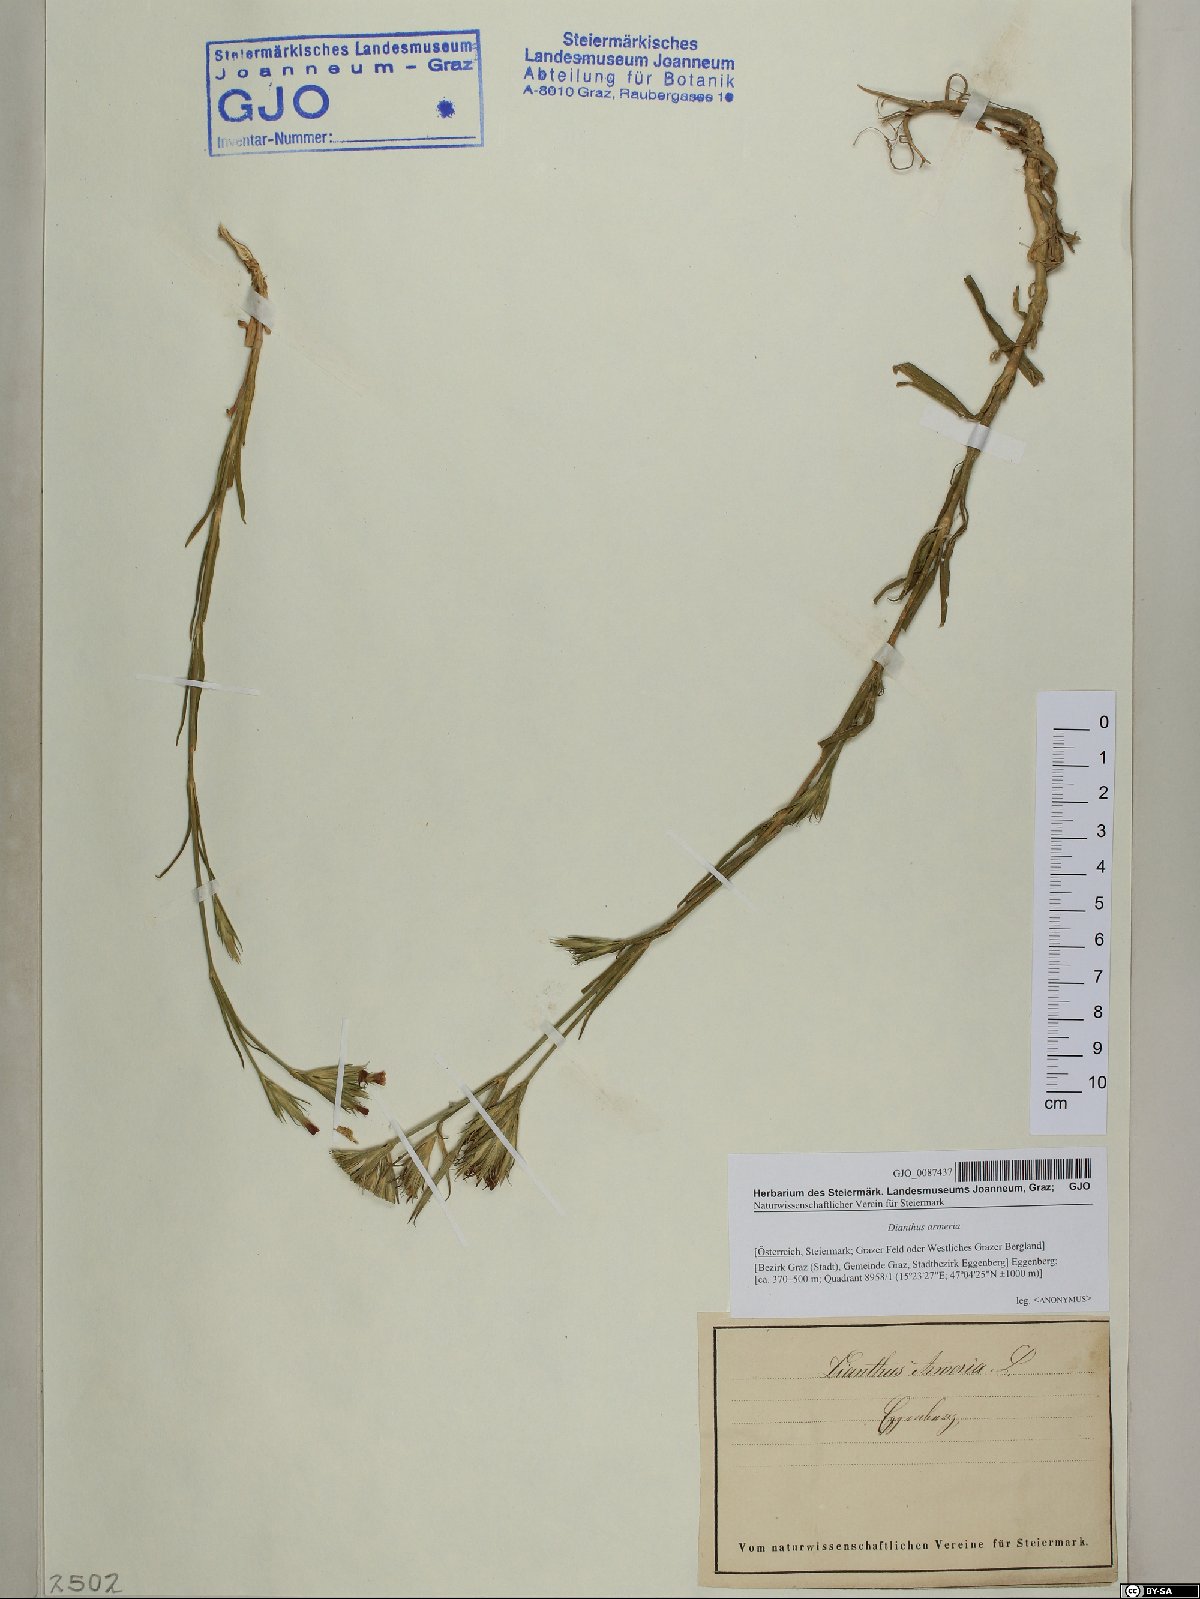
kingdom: Plantae
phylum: Tracheophyta
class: Magnoliopsida
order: Caryophyllales
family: Caryophyllaceae
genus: Dianthus
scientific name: Dianthus armeria
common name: Deptford pink
